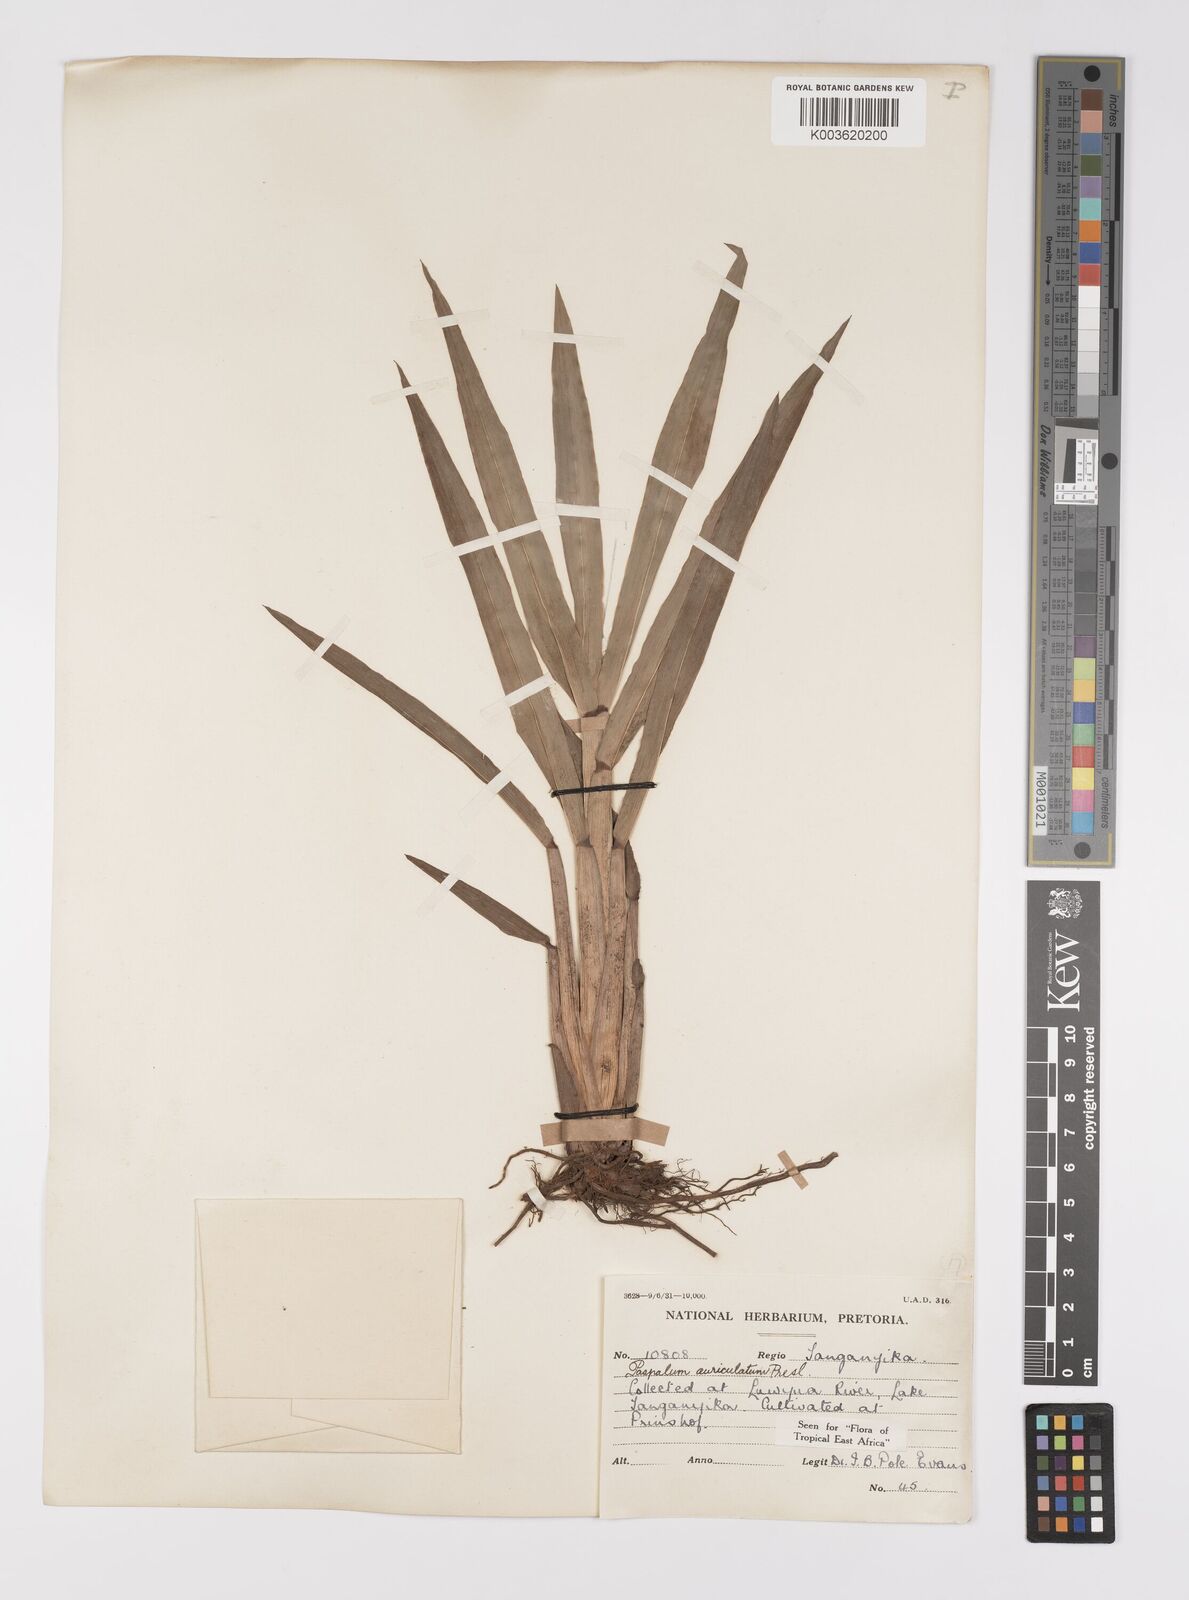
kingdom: Plantae
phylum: Tracheophyta
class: Liliopsida
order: Poales
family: Poaceae
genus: Paspalum
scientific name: Paspalum lamprocaryon
